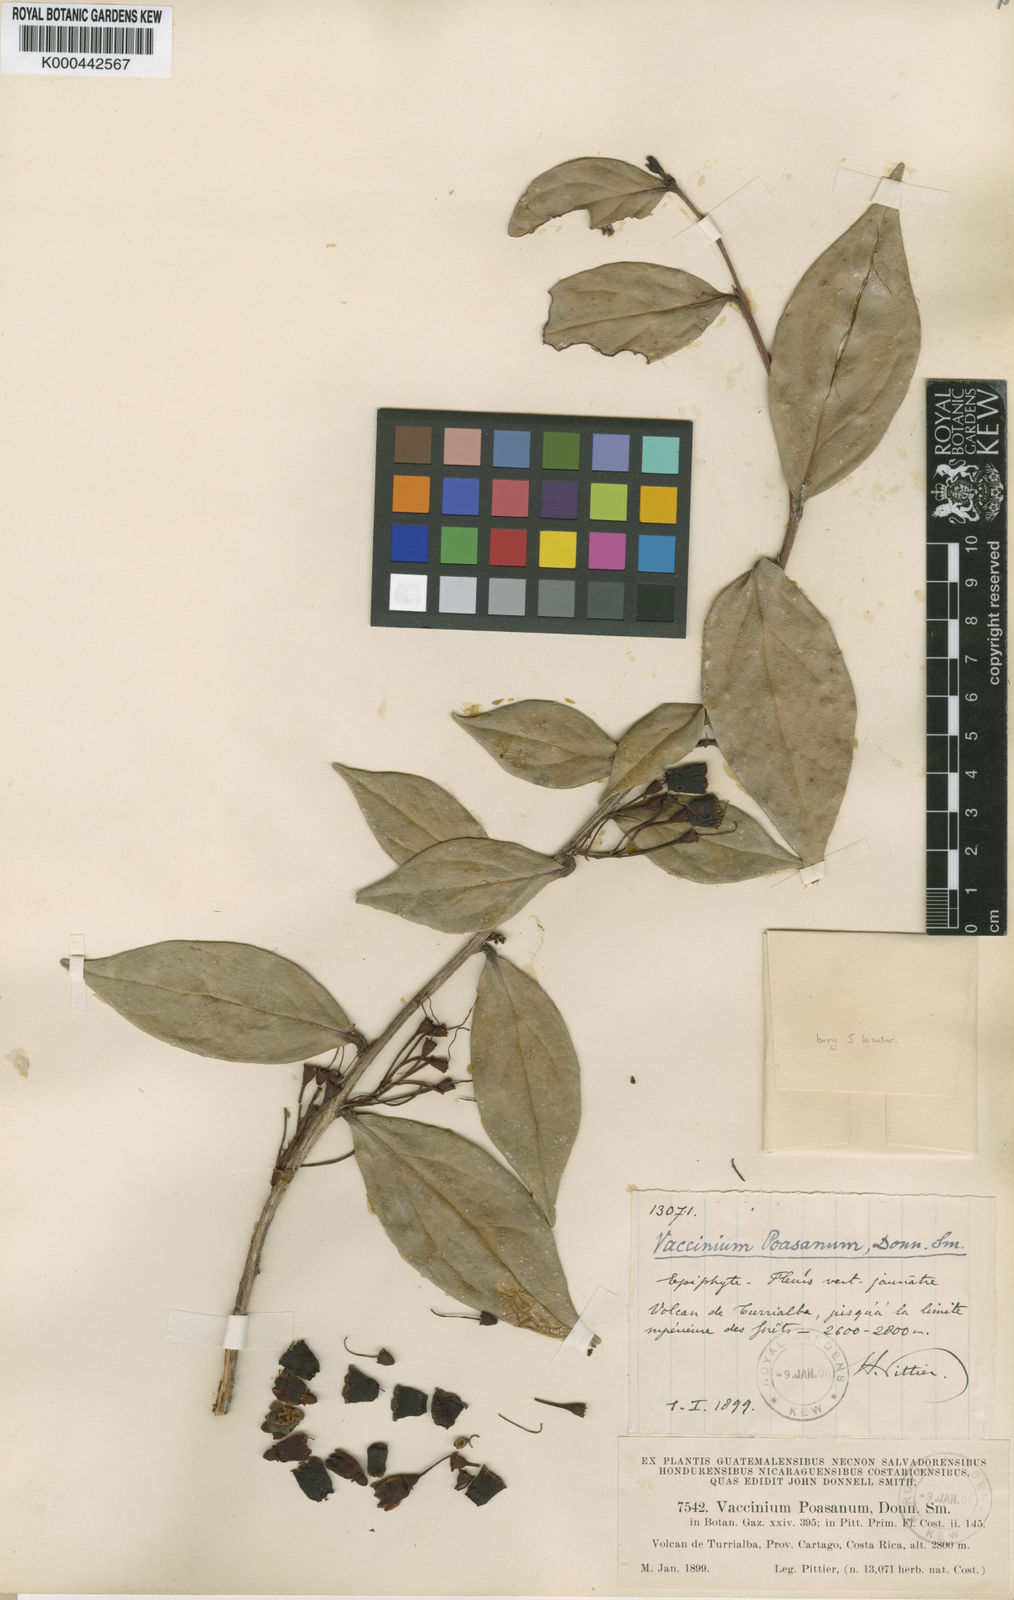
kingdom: Plantae
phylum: Tracheophyta
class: Magnoliopsida
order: Ericales
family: Ericaceae
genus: Symphysia
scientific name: Symphysia poasana
